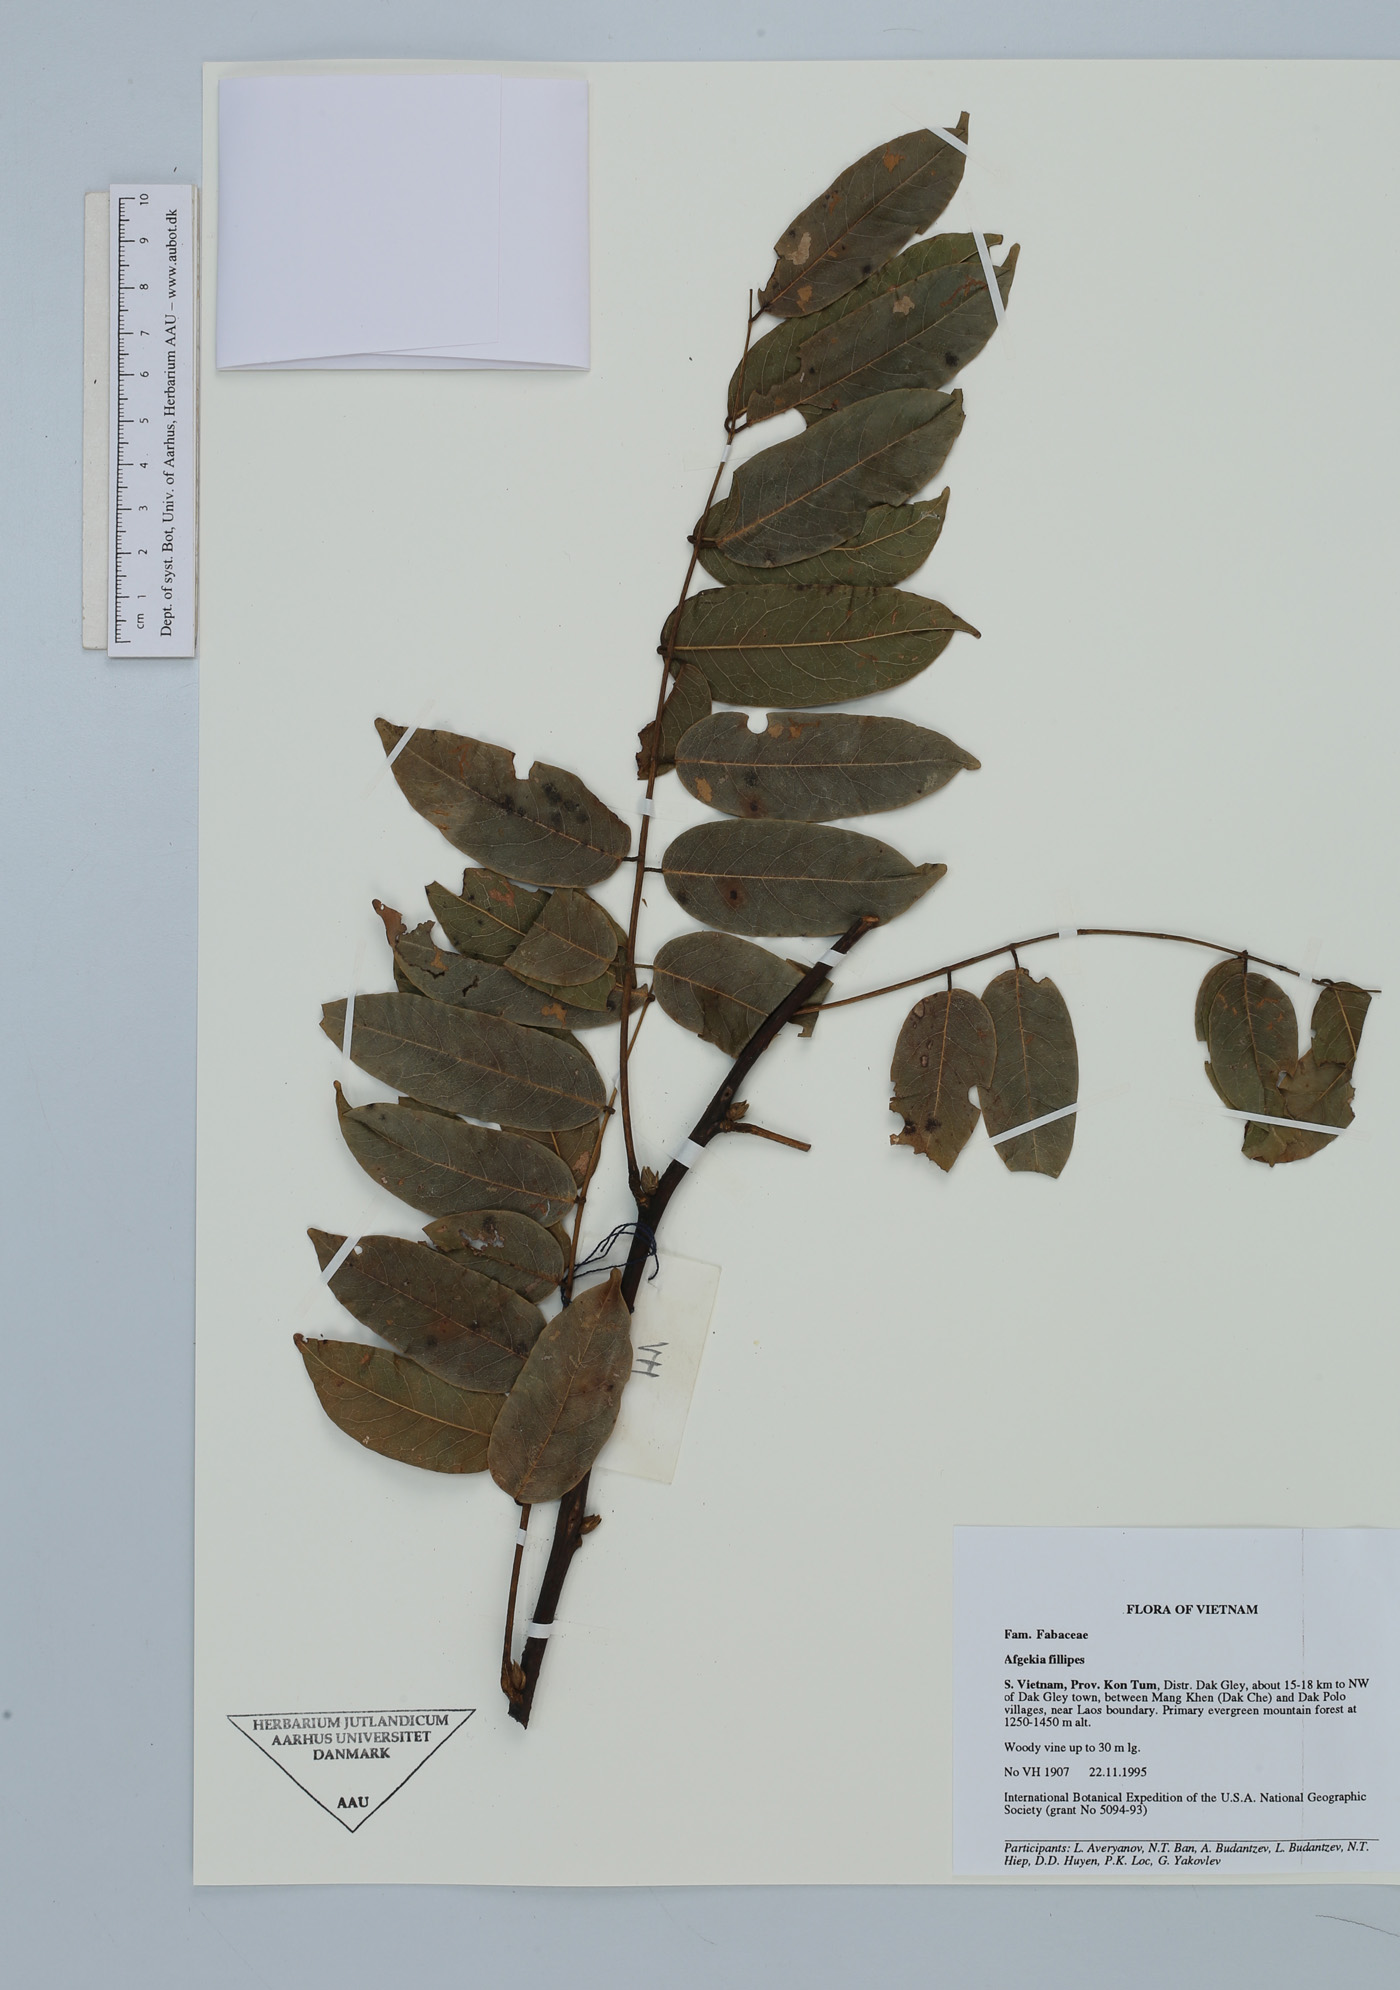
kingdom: Plantae
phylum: Tracheophyta
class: Magnoliopsida
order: Fabales
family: Fabaceae
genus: Padbruggea
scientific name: Padbruggea filipes
